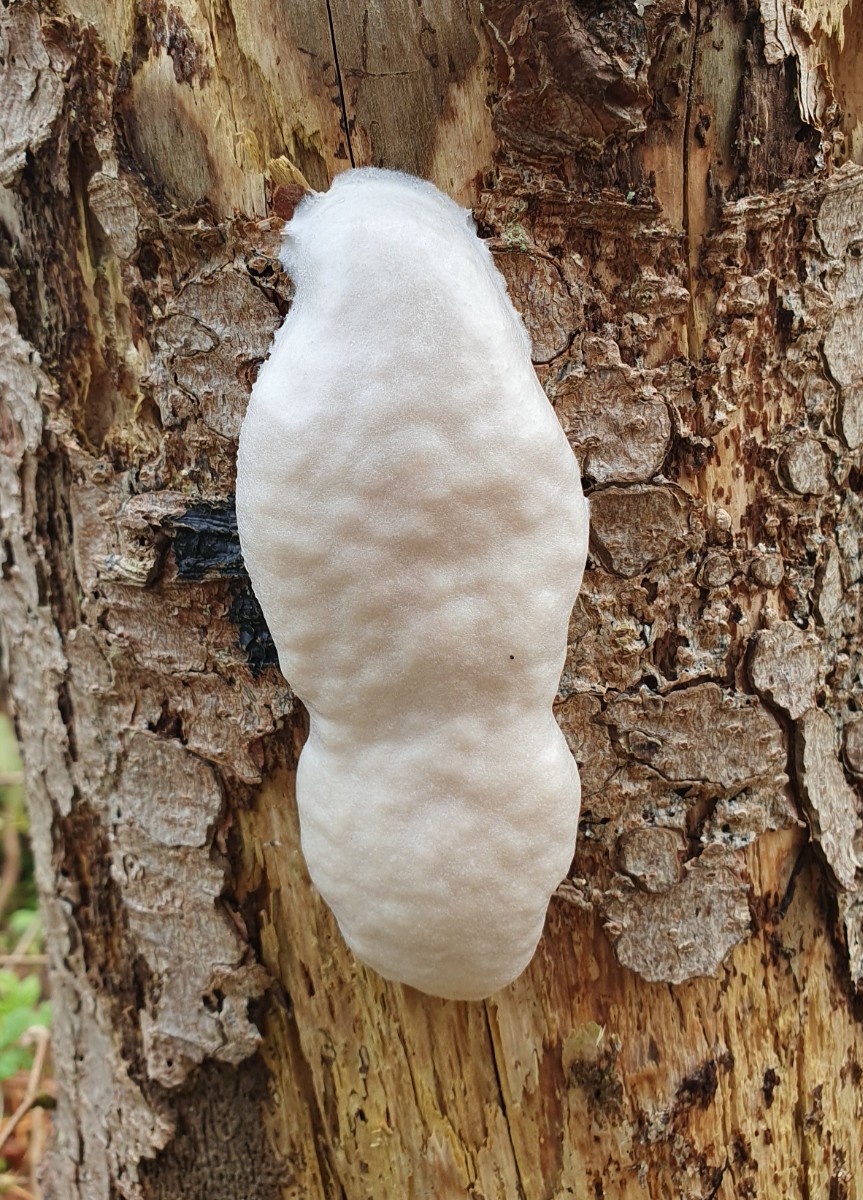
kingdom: Protozoa
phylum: Mycetozoa
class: Myxomycetes
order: Cribrariales
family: Tubiferaceae
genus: Reticularia
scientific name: Reticularia lycoperdon
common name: skinnende støvpude
